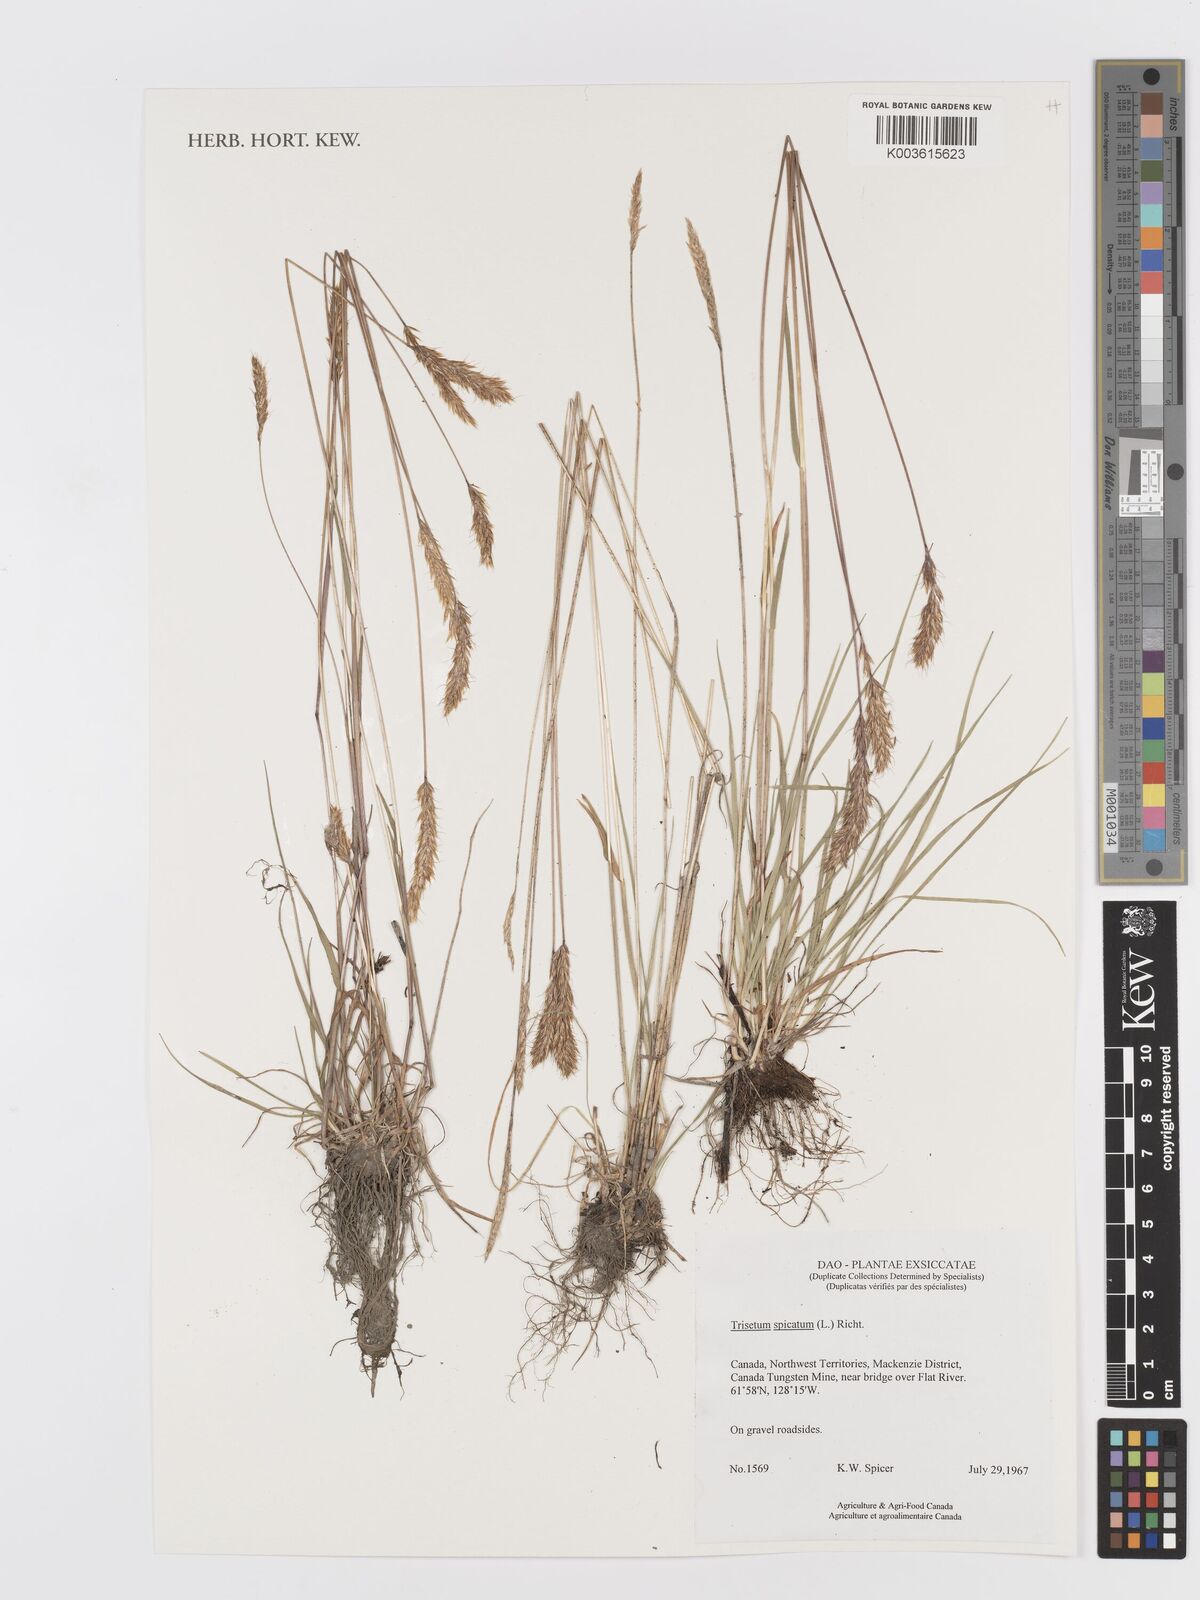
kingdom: Plantae
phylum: Tracheophyta
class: Liliopsida
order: Poales
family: Poaceae
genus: Koeleria
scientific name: Koeleria spicata
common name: Mountain trisetum
